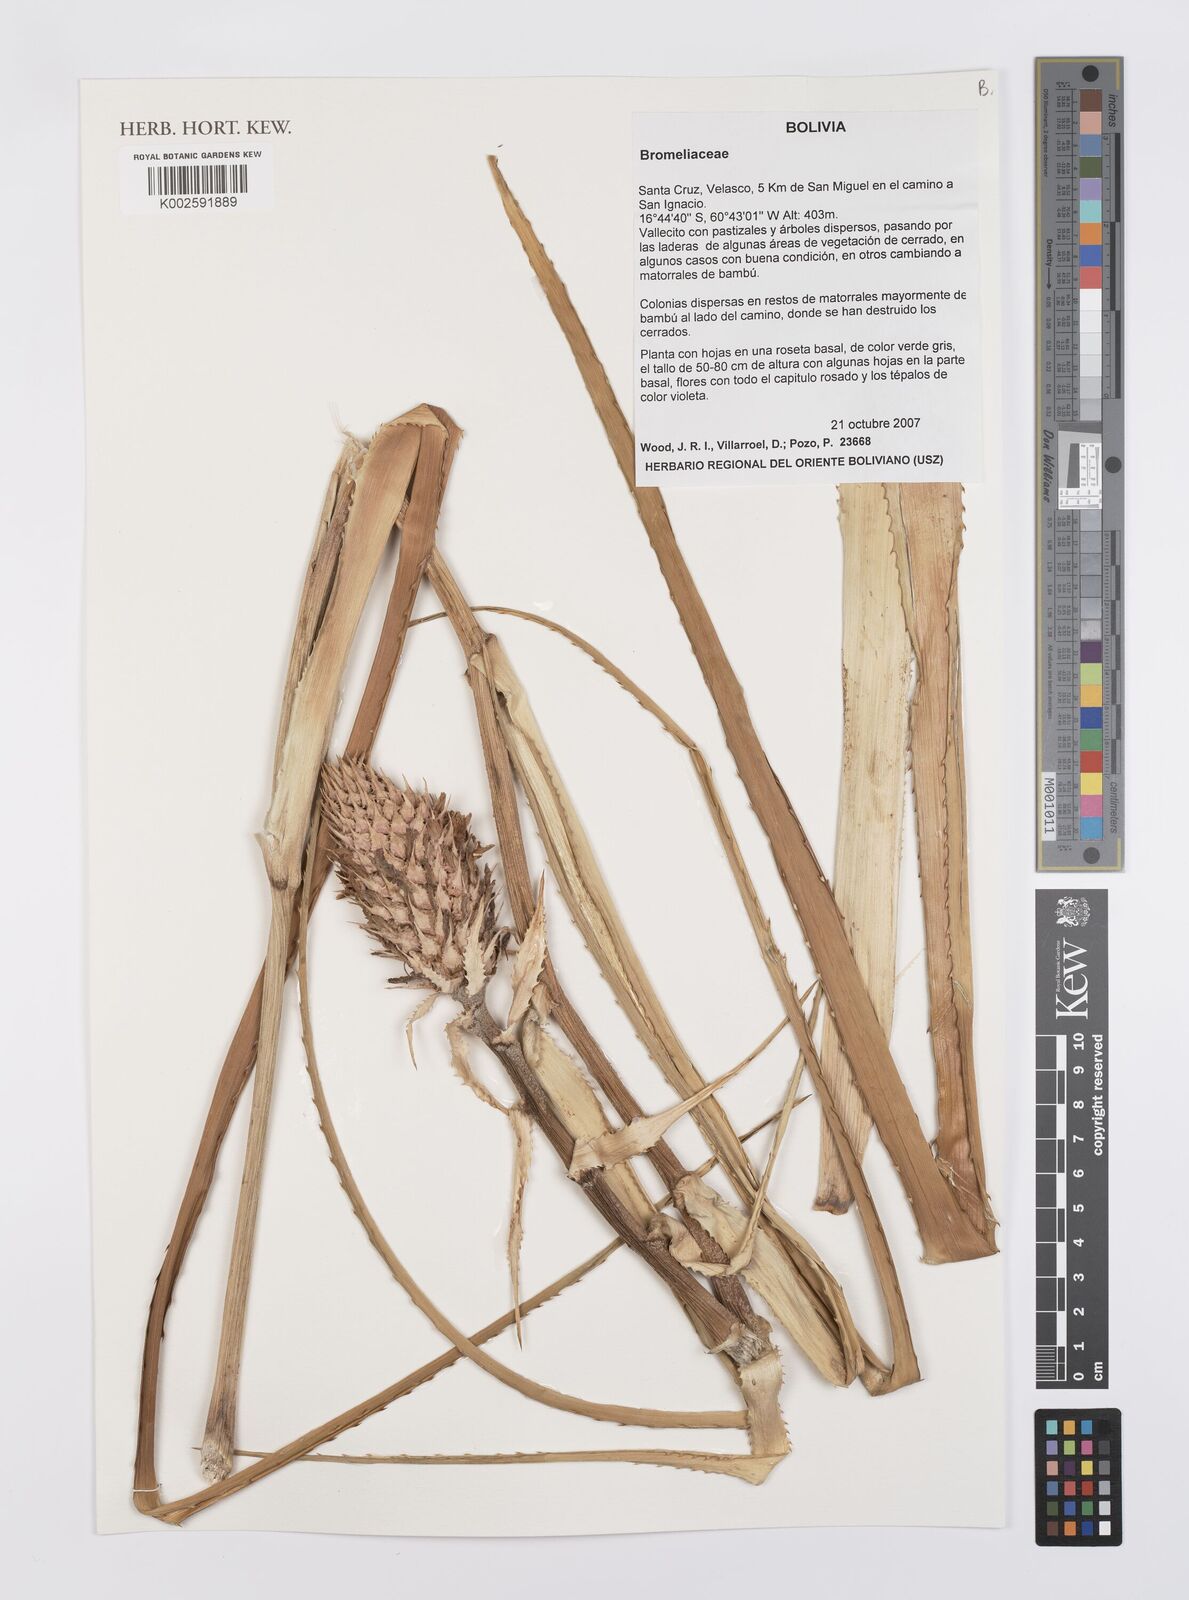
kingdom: Plantae
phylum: Tracheophyta
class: Liliopsida
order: Poales
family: Bromeliaceae
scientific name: Bromeliaceae
